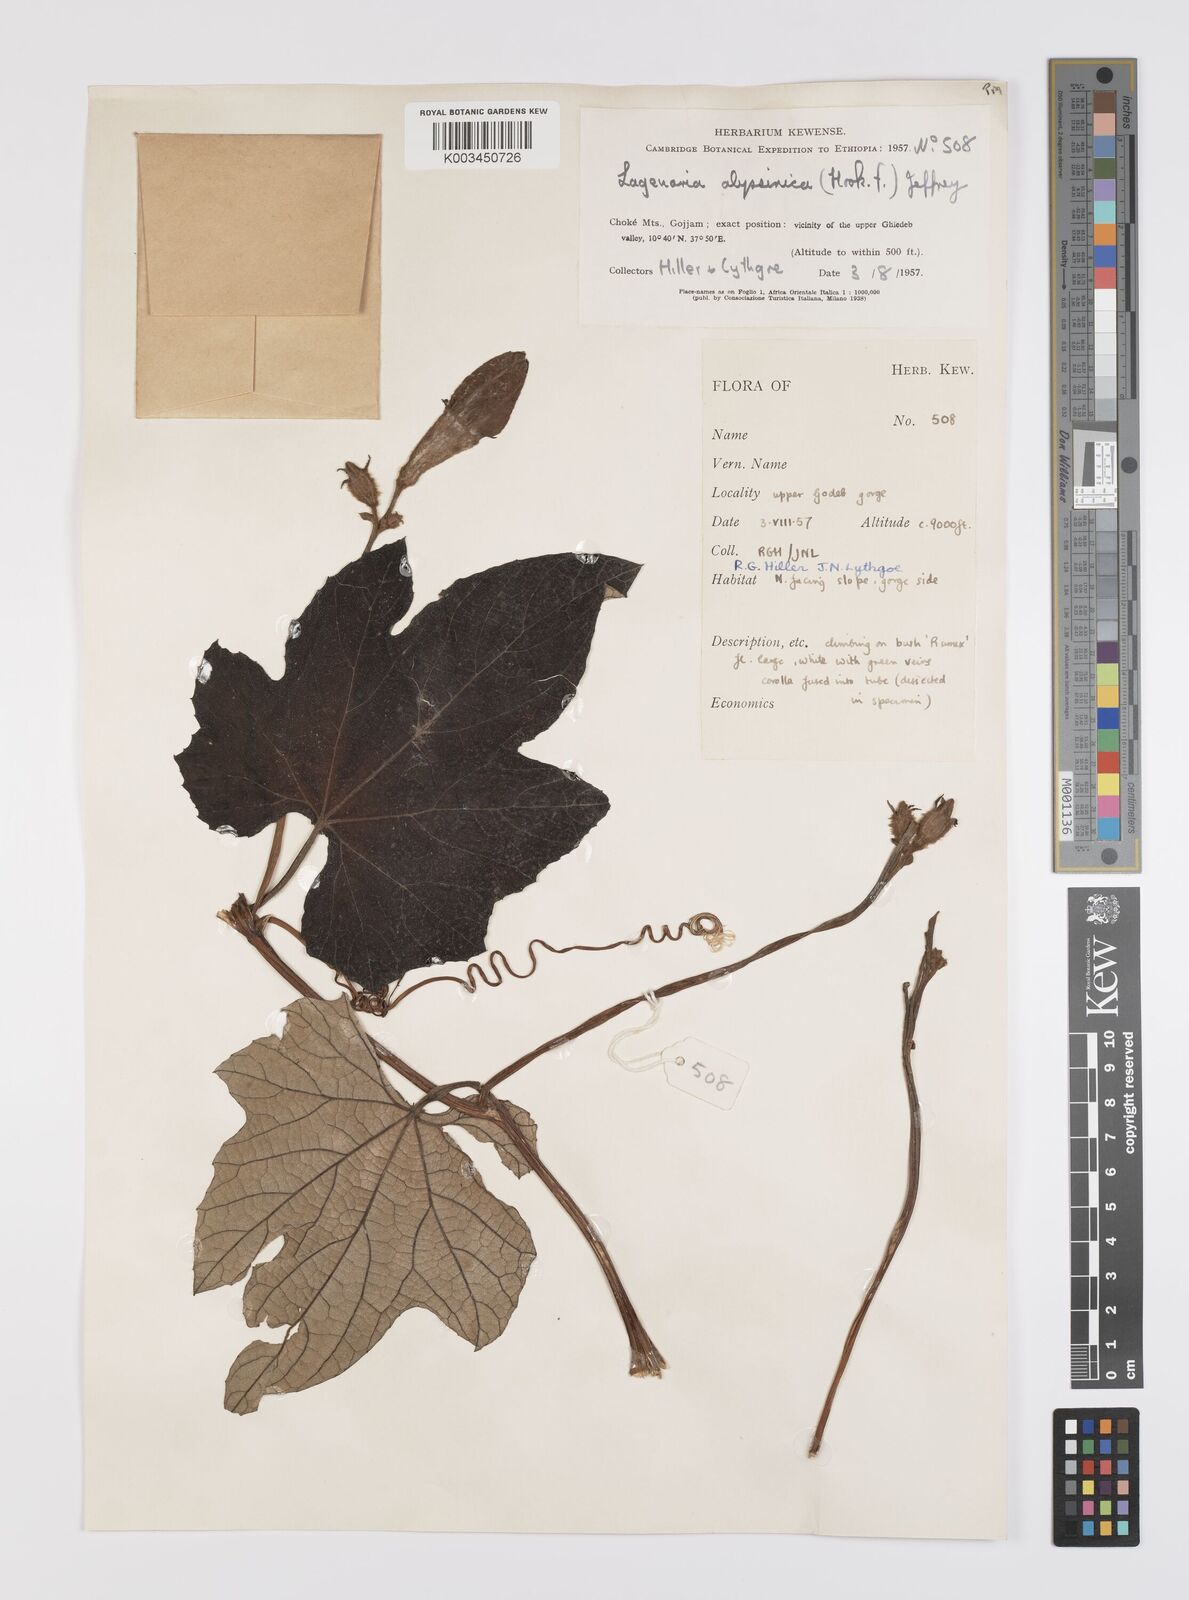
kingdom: Plantae
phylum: Tracheophyta
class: Magnoliopsida
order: Cucurbitales
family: Cucurbitaceae
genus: Lagenaria
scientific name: Lagenaria abyssinica
